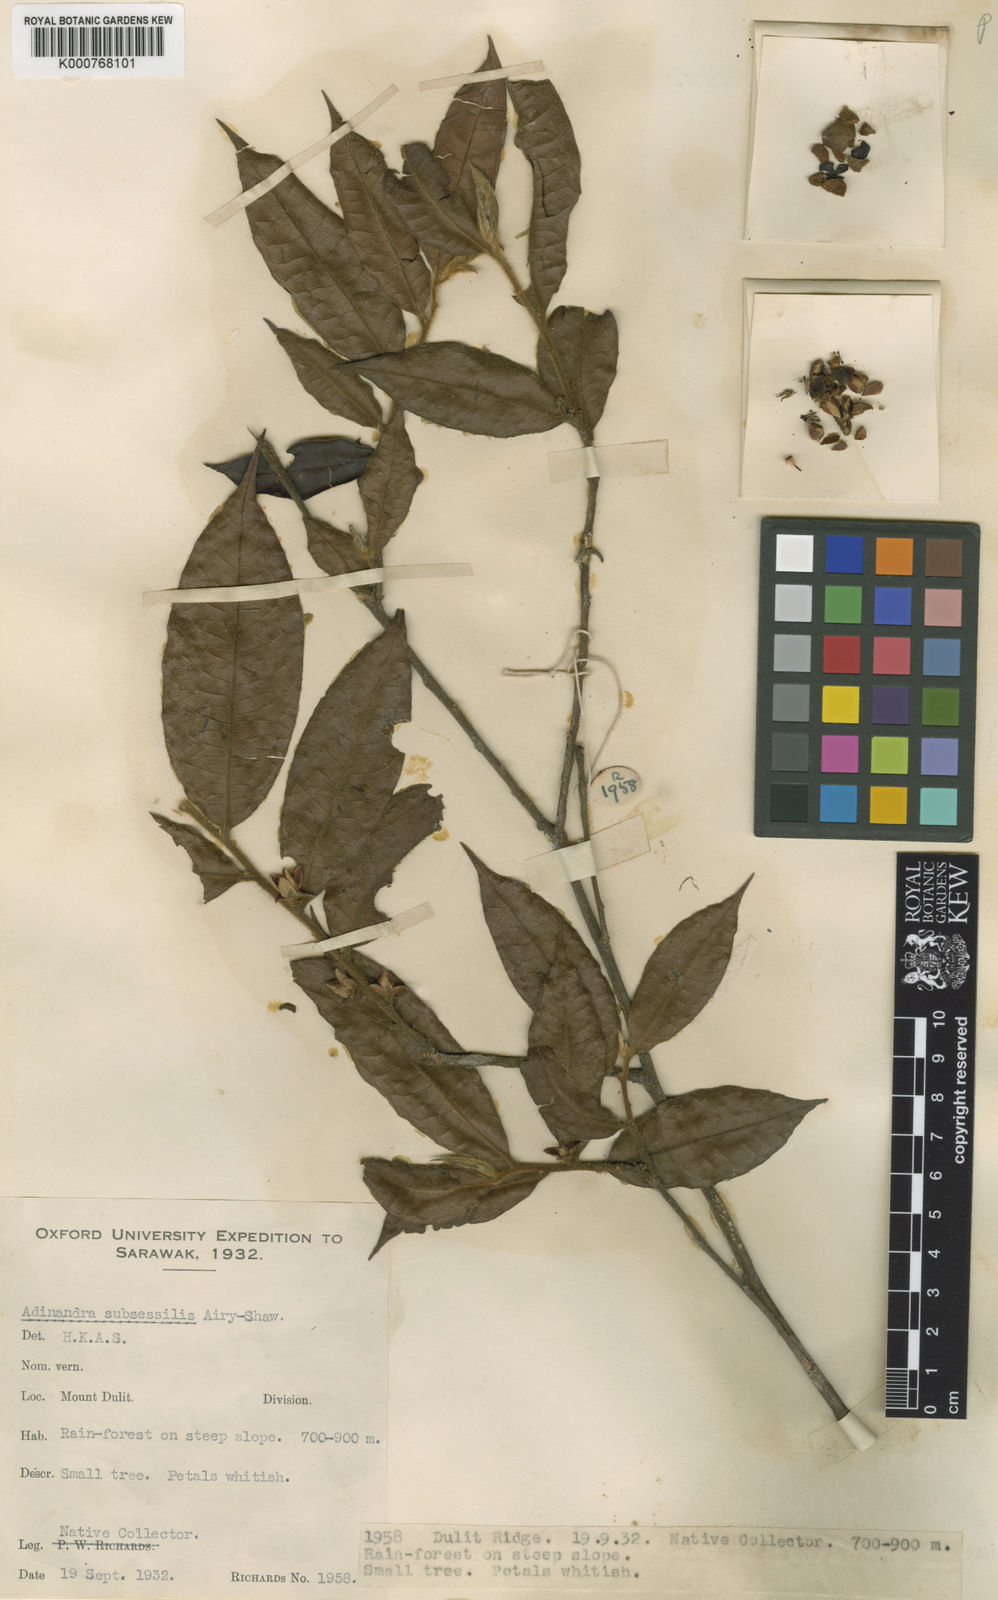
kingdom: Plantae
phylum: Tracheophyta
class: Magnoliopsida
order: Ericales
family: Pentaphylacaceae
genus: Adinandra
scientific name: Adinandra subsessilis
